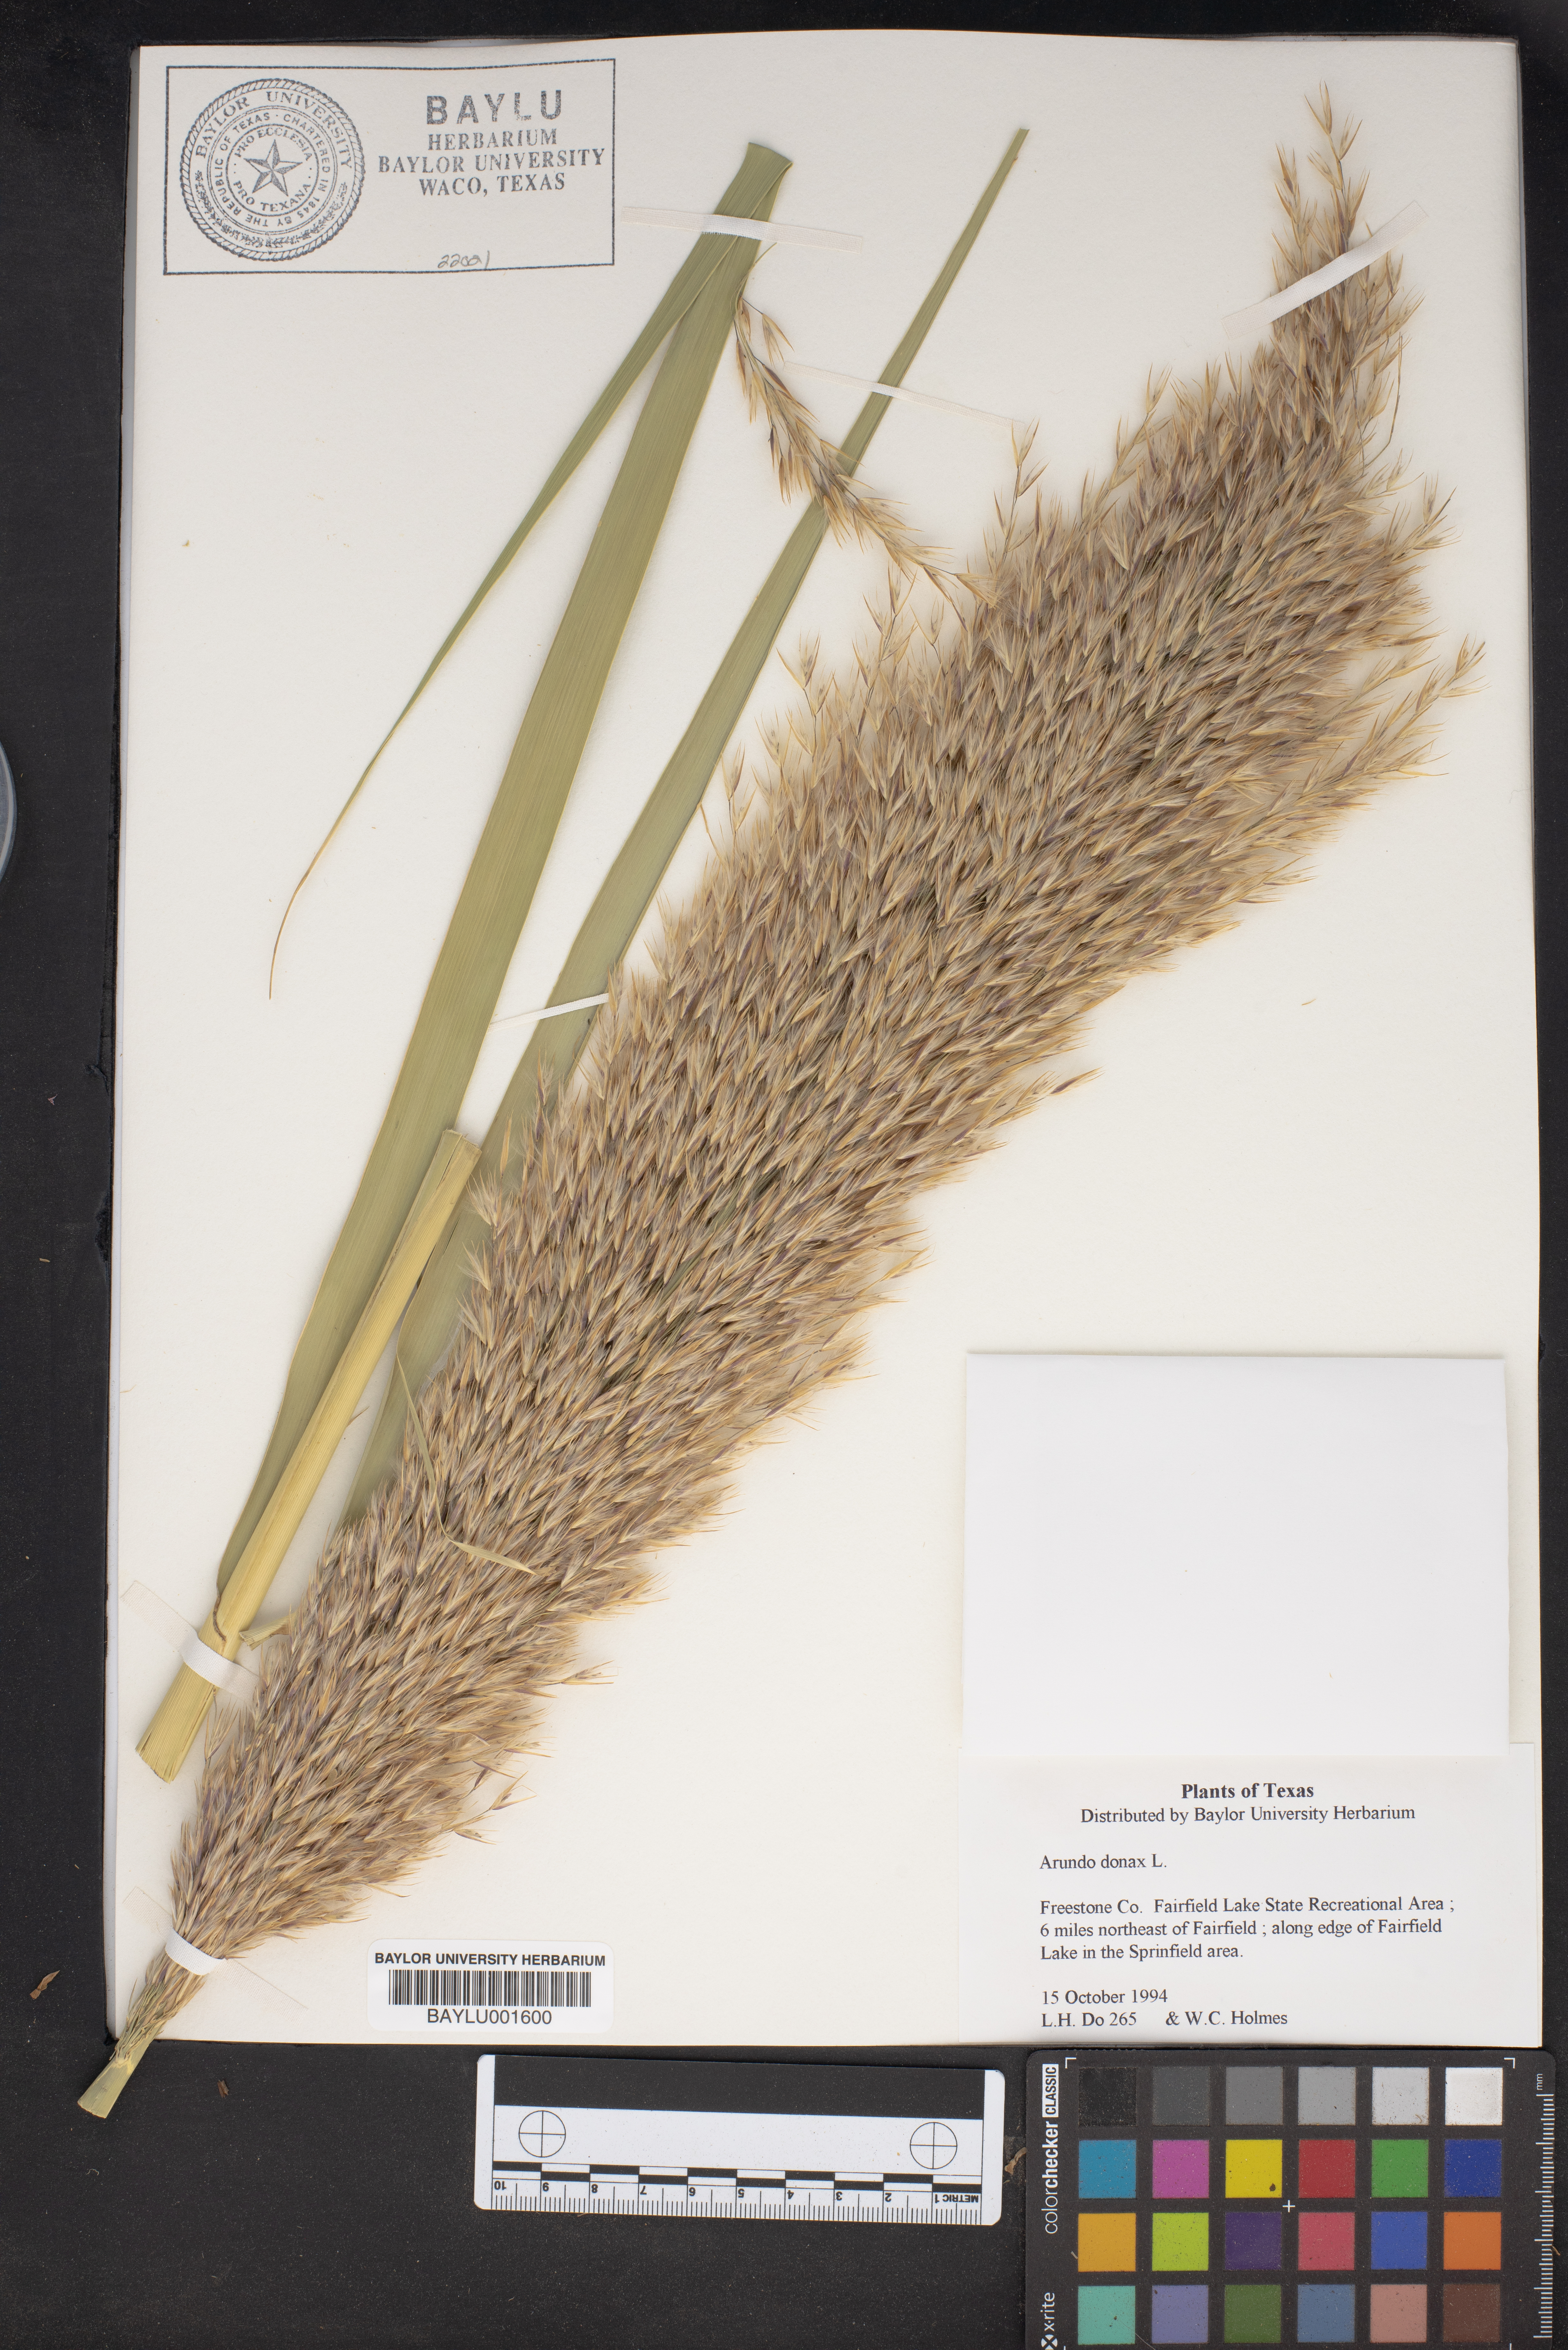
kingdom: Plantae
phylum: Tracheophyta
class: Liliopsida
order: Poales
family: Poaceae
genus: Arundo
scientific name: Arundo donax
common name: Giant reed
